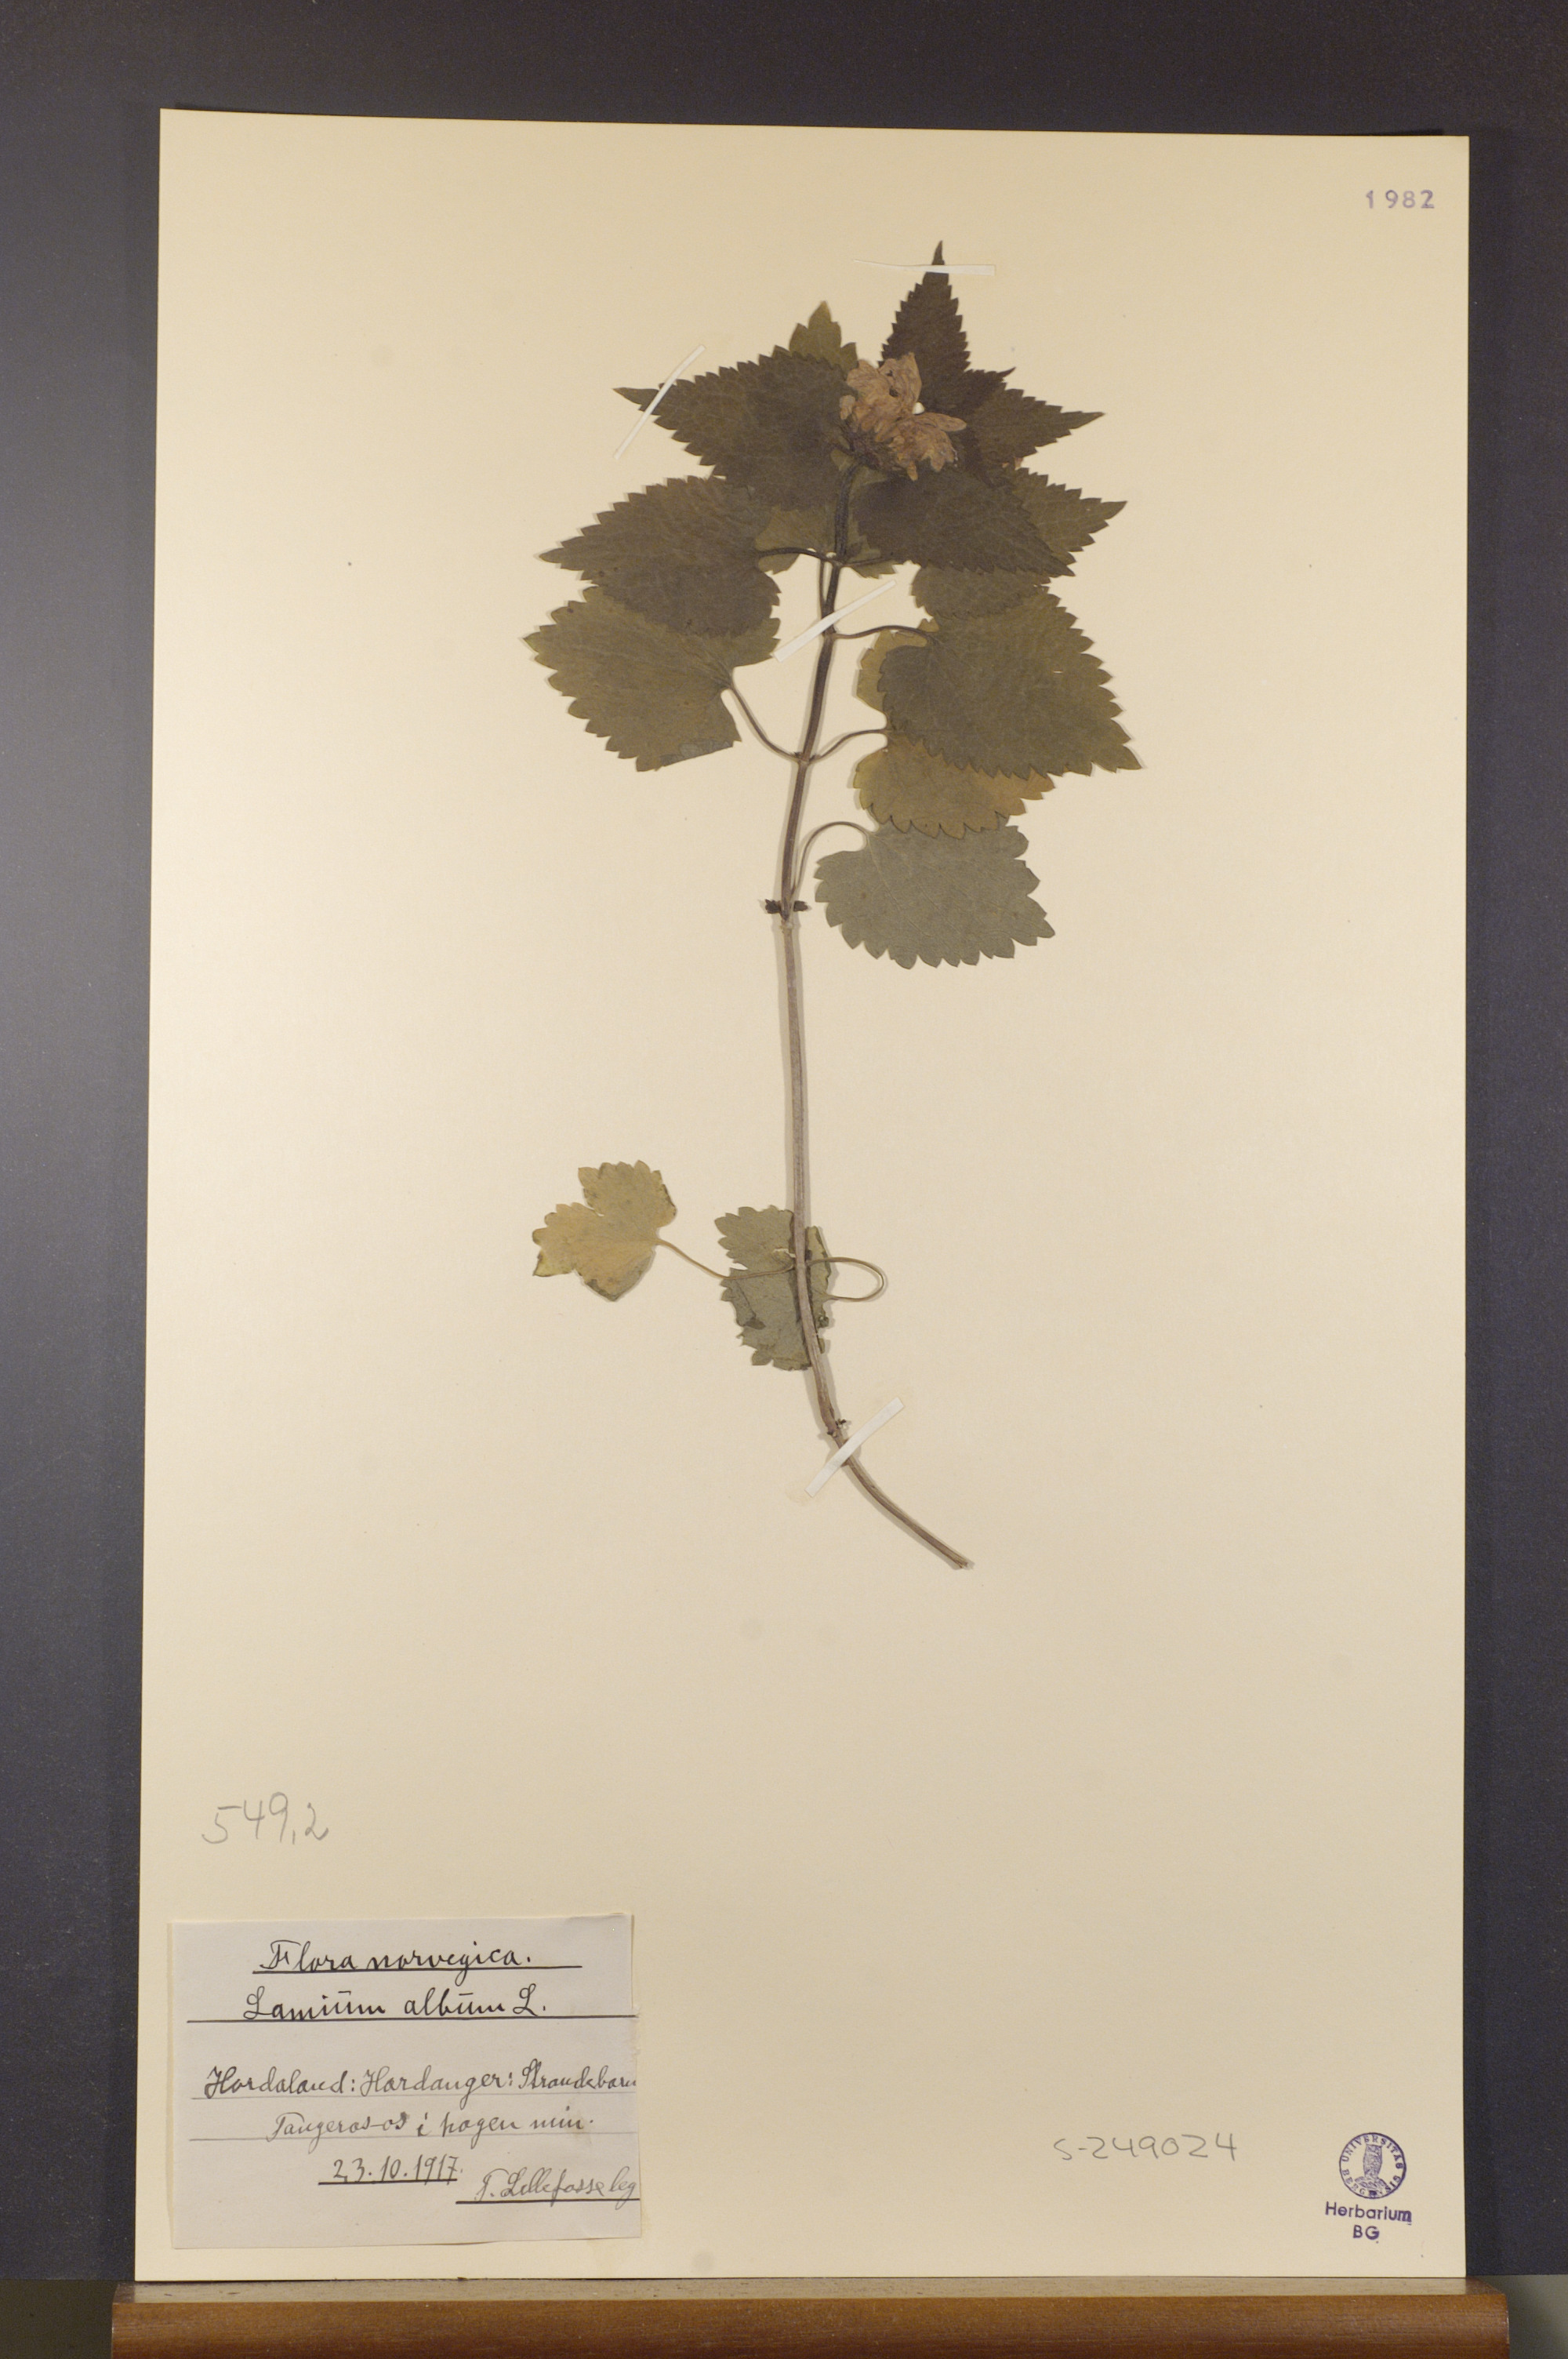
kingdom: Plantae
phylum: Tracheophyta
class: Magnoliopsida
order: Lamiales
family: Lamiaceae
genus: Lamium
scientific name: Lamium album
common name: White dead-nettle
